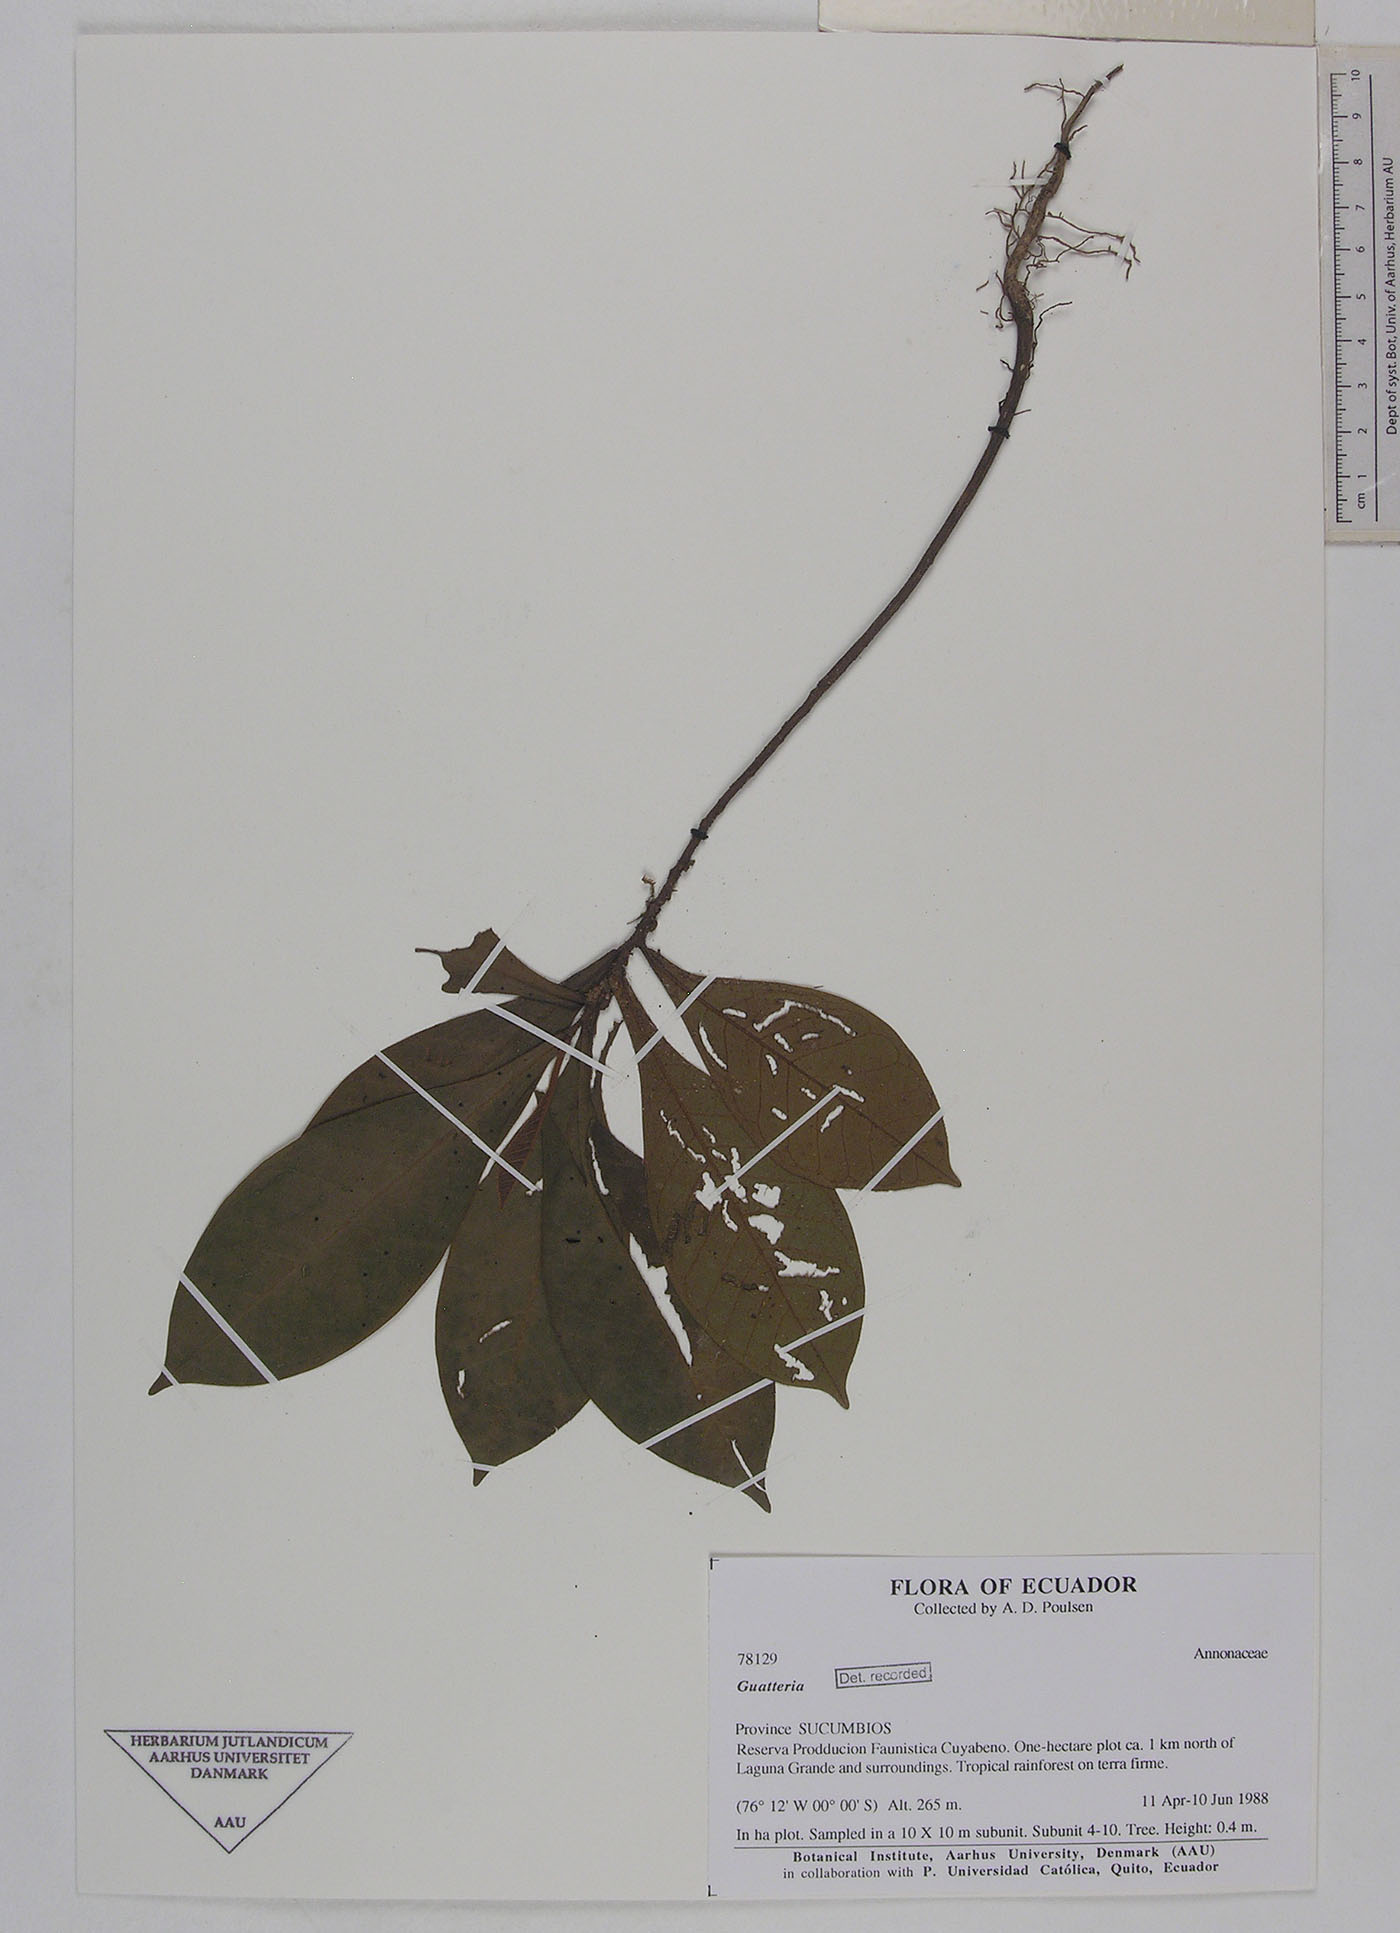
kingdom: Plantae
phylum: Tracheophyta
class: Magnoliopsida
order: Magnoliales
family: Annonaceae
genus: Guatteria
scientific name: Guatteria
